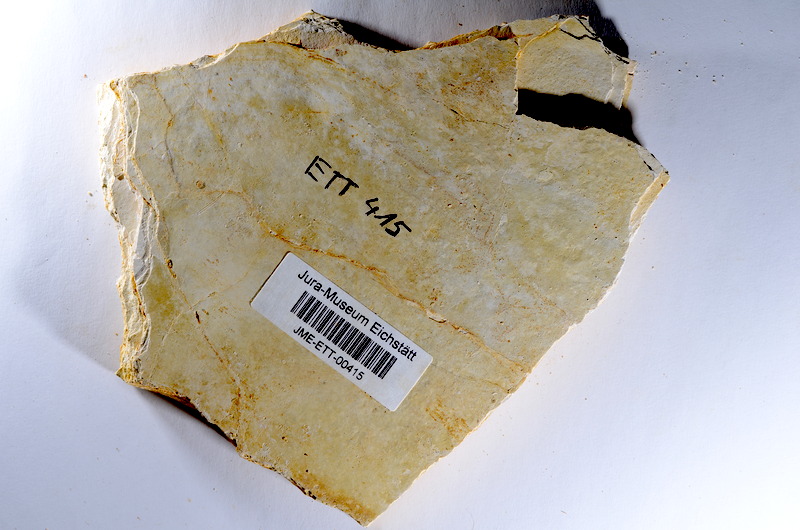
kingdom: Animalia
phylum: Chordata
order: Salmoniformes
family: Orthogonikleithridae
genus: Orthogonikleithrus
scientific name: Orthogonikleithrus hoelli
